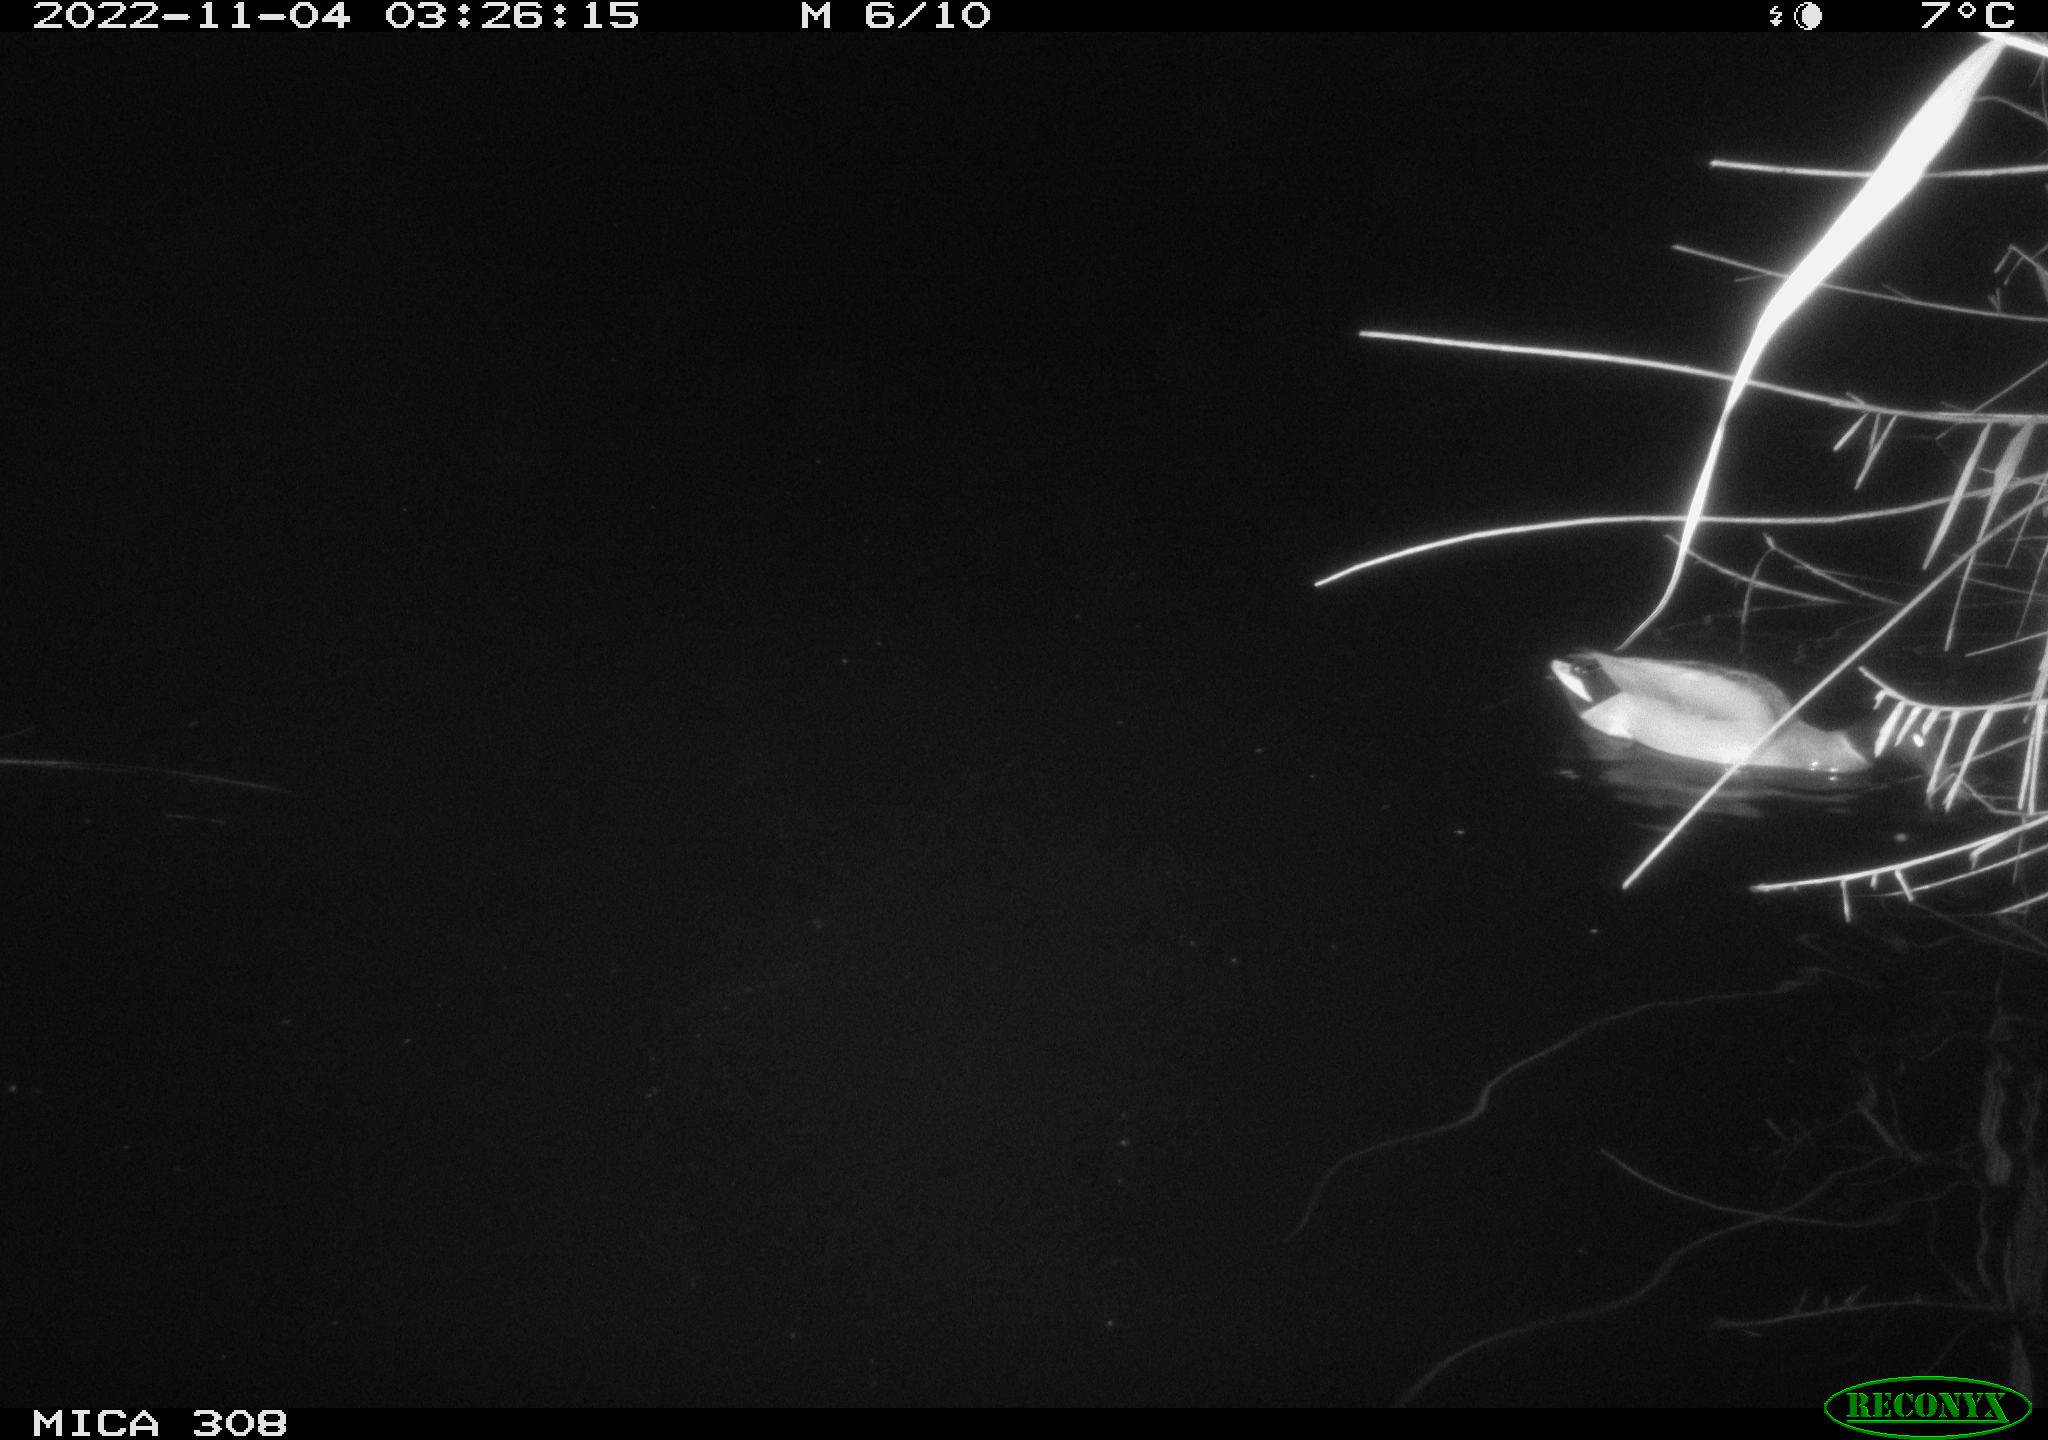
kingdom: Animalia
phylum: Chordata
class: Aves
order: Anseriformes
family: Anatidae
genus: Anas
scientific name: Anas
